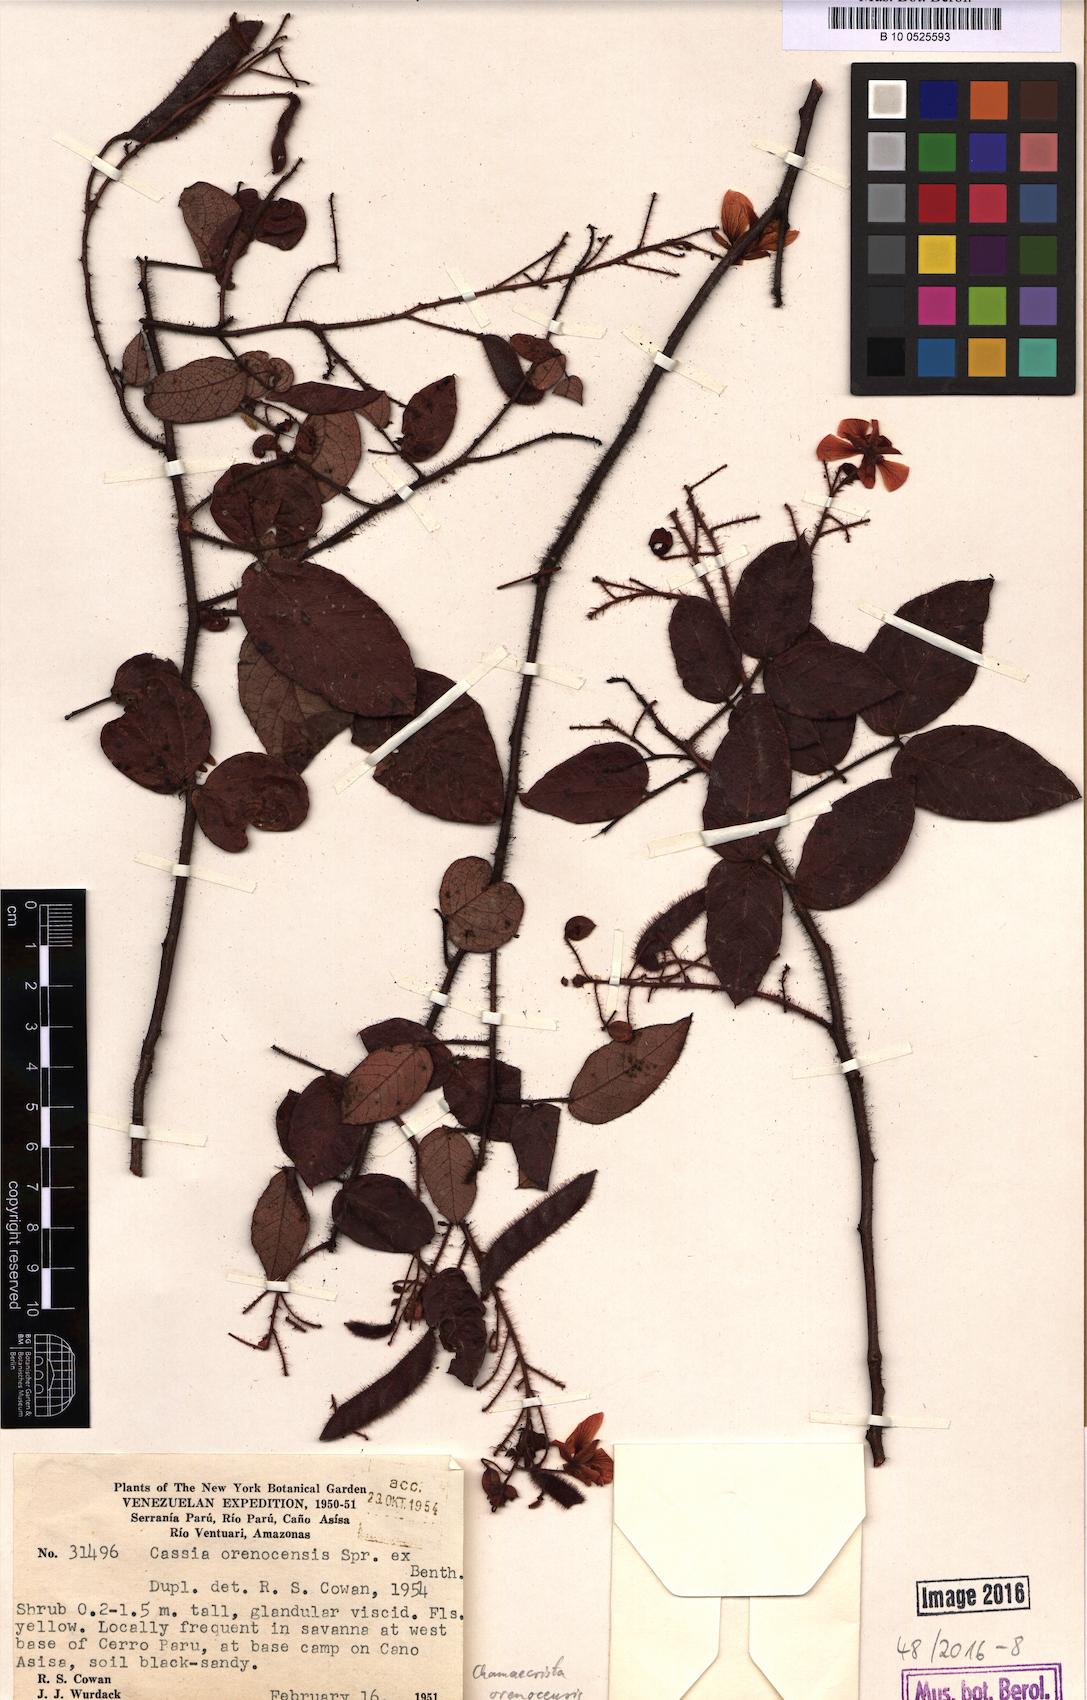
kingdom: Plantae
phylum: Tracheophyta
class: Magnoliopsida
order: Fabales
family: Fabaceae
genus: Chamaecrista
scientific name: Chamaecrista orenocensis
